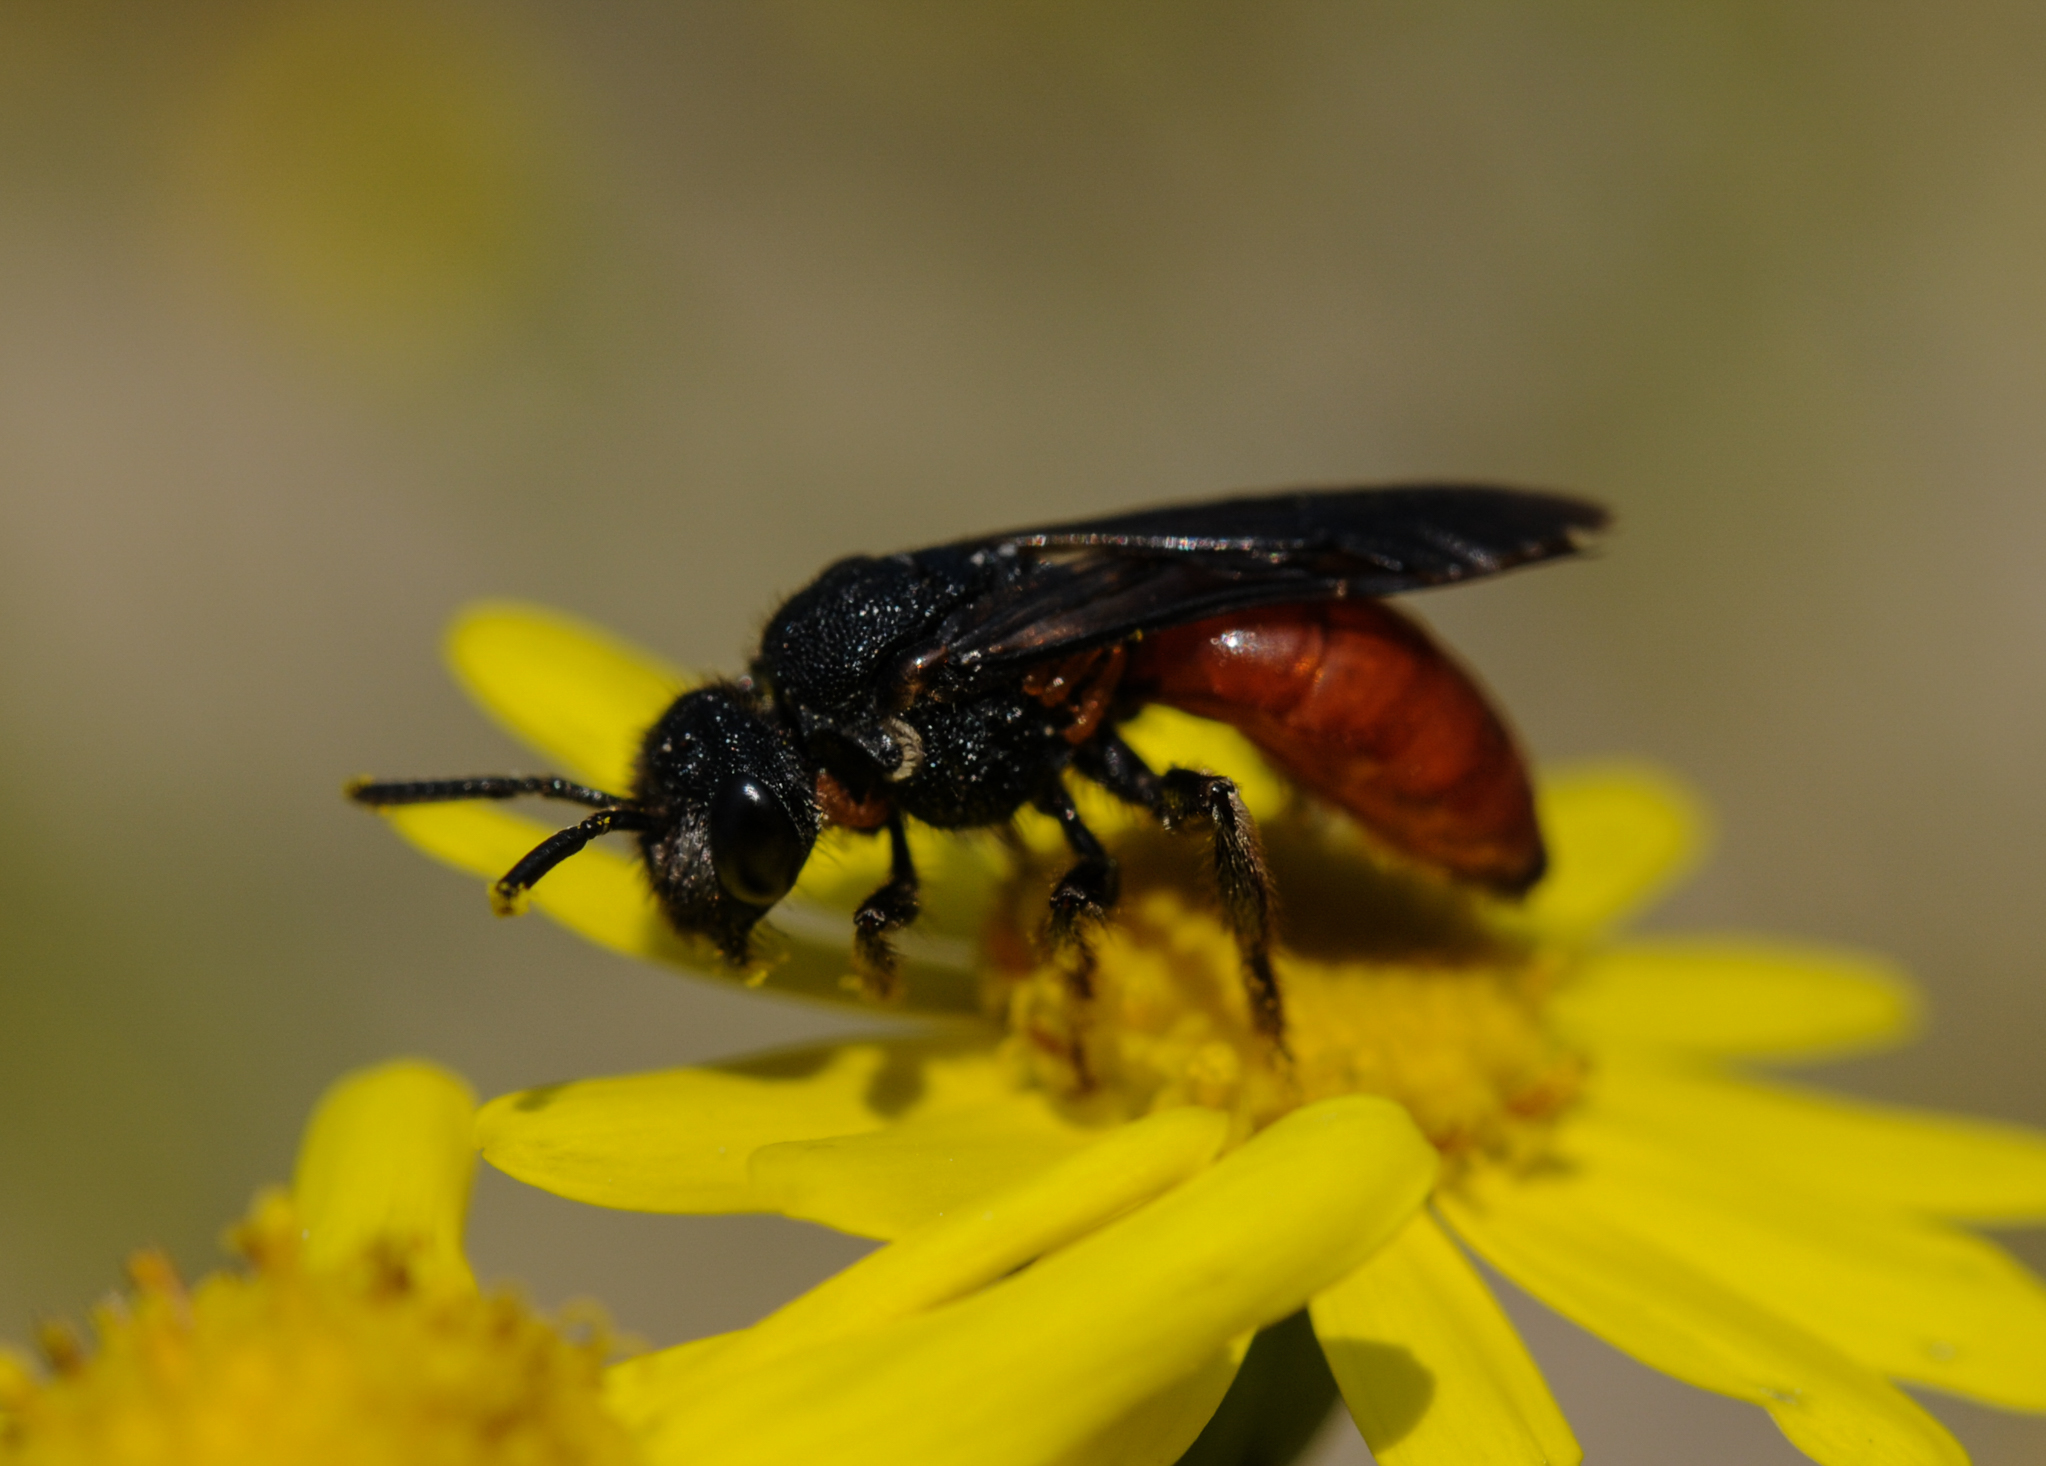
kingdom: Animalia
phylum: Arthropoda
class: Insecta
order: Hymenoptera
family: Halictidae
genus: Sphecodes
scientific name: Sphecodes gibbus
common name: Dark-winged blood bee
